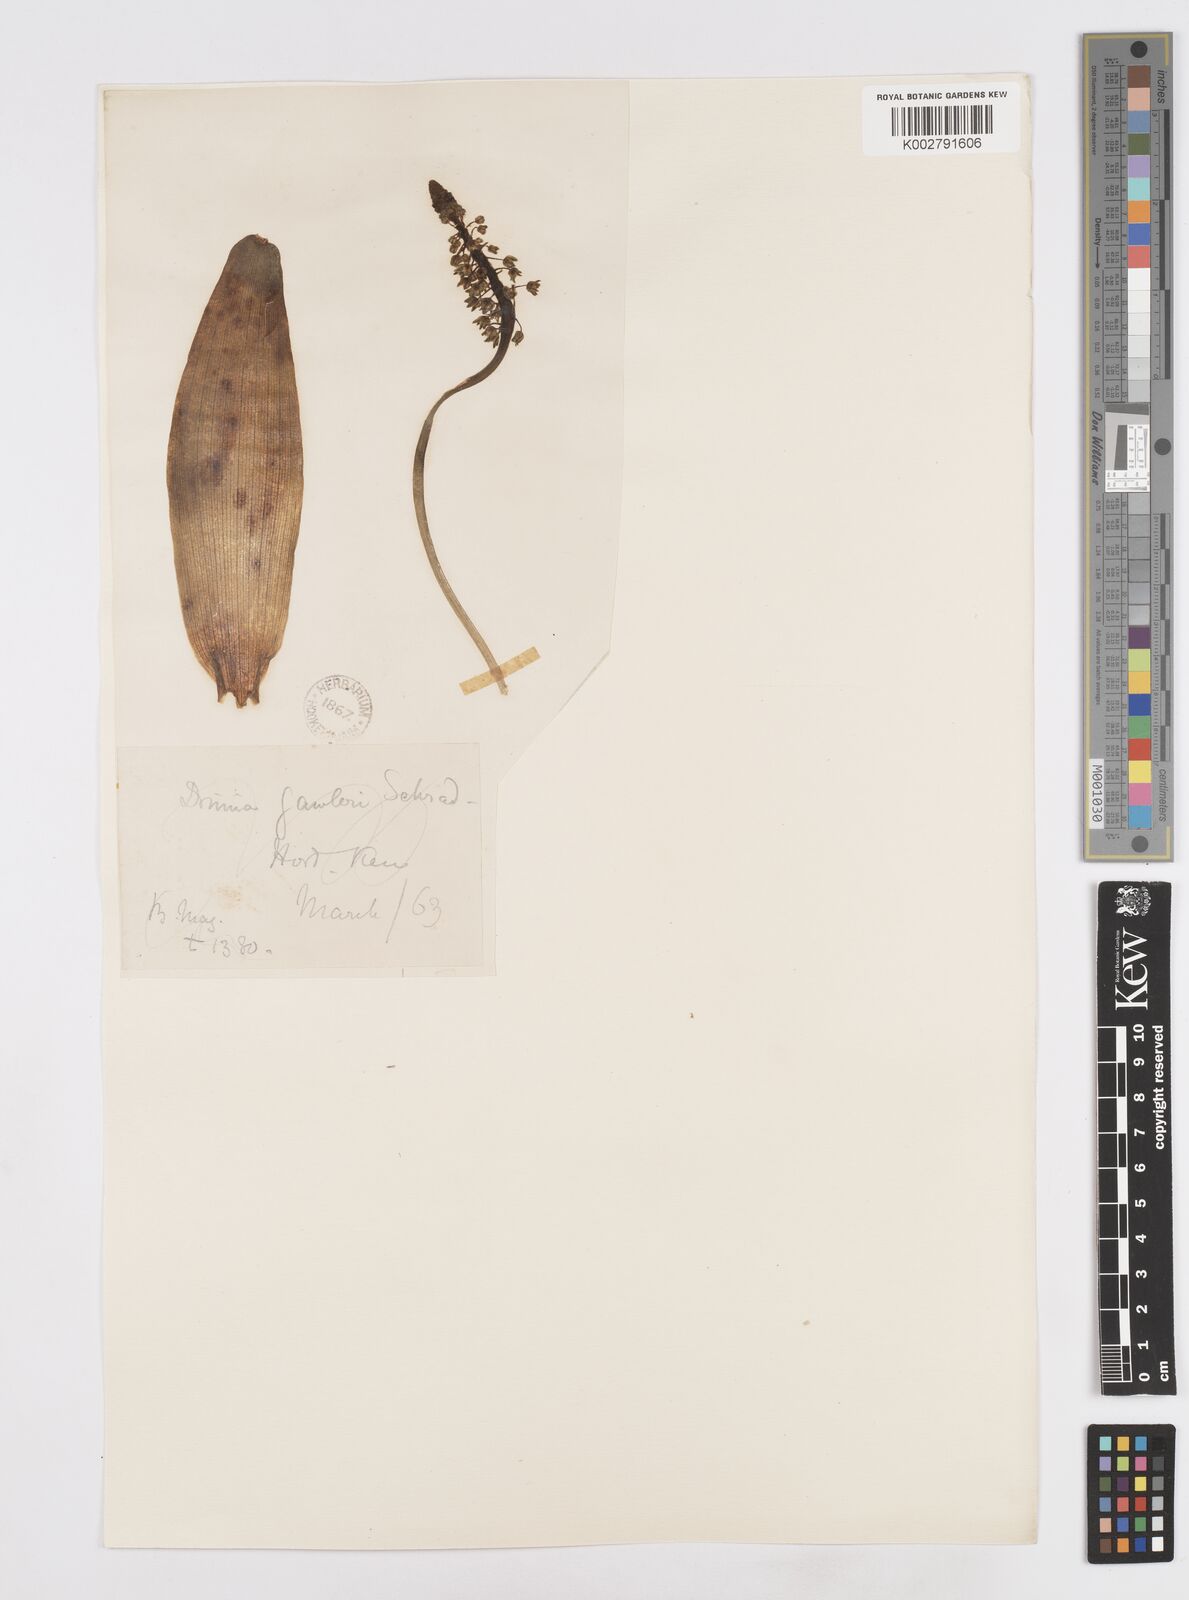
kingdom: Plantae
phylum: Tracheophyta
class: Liliopsida
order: Asparagales
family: Asparagaceae
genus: Scilla
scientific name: Scilla
